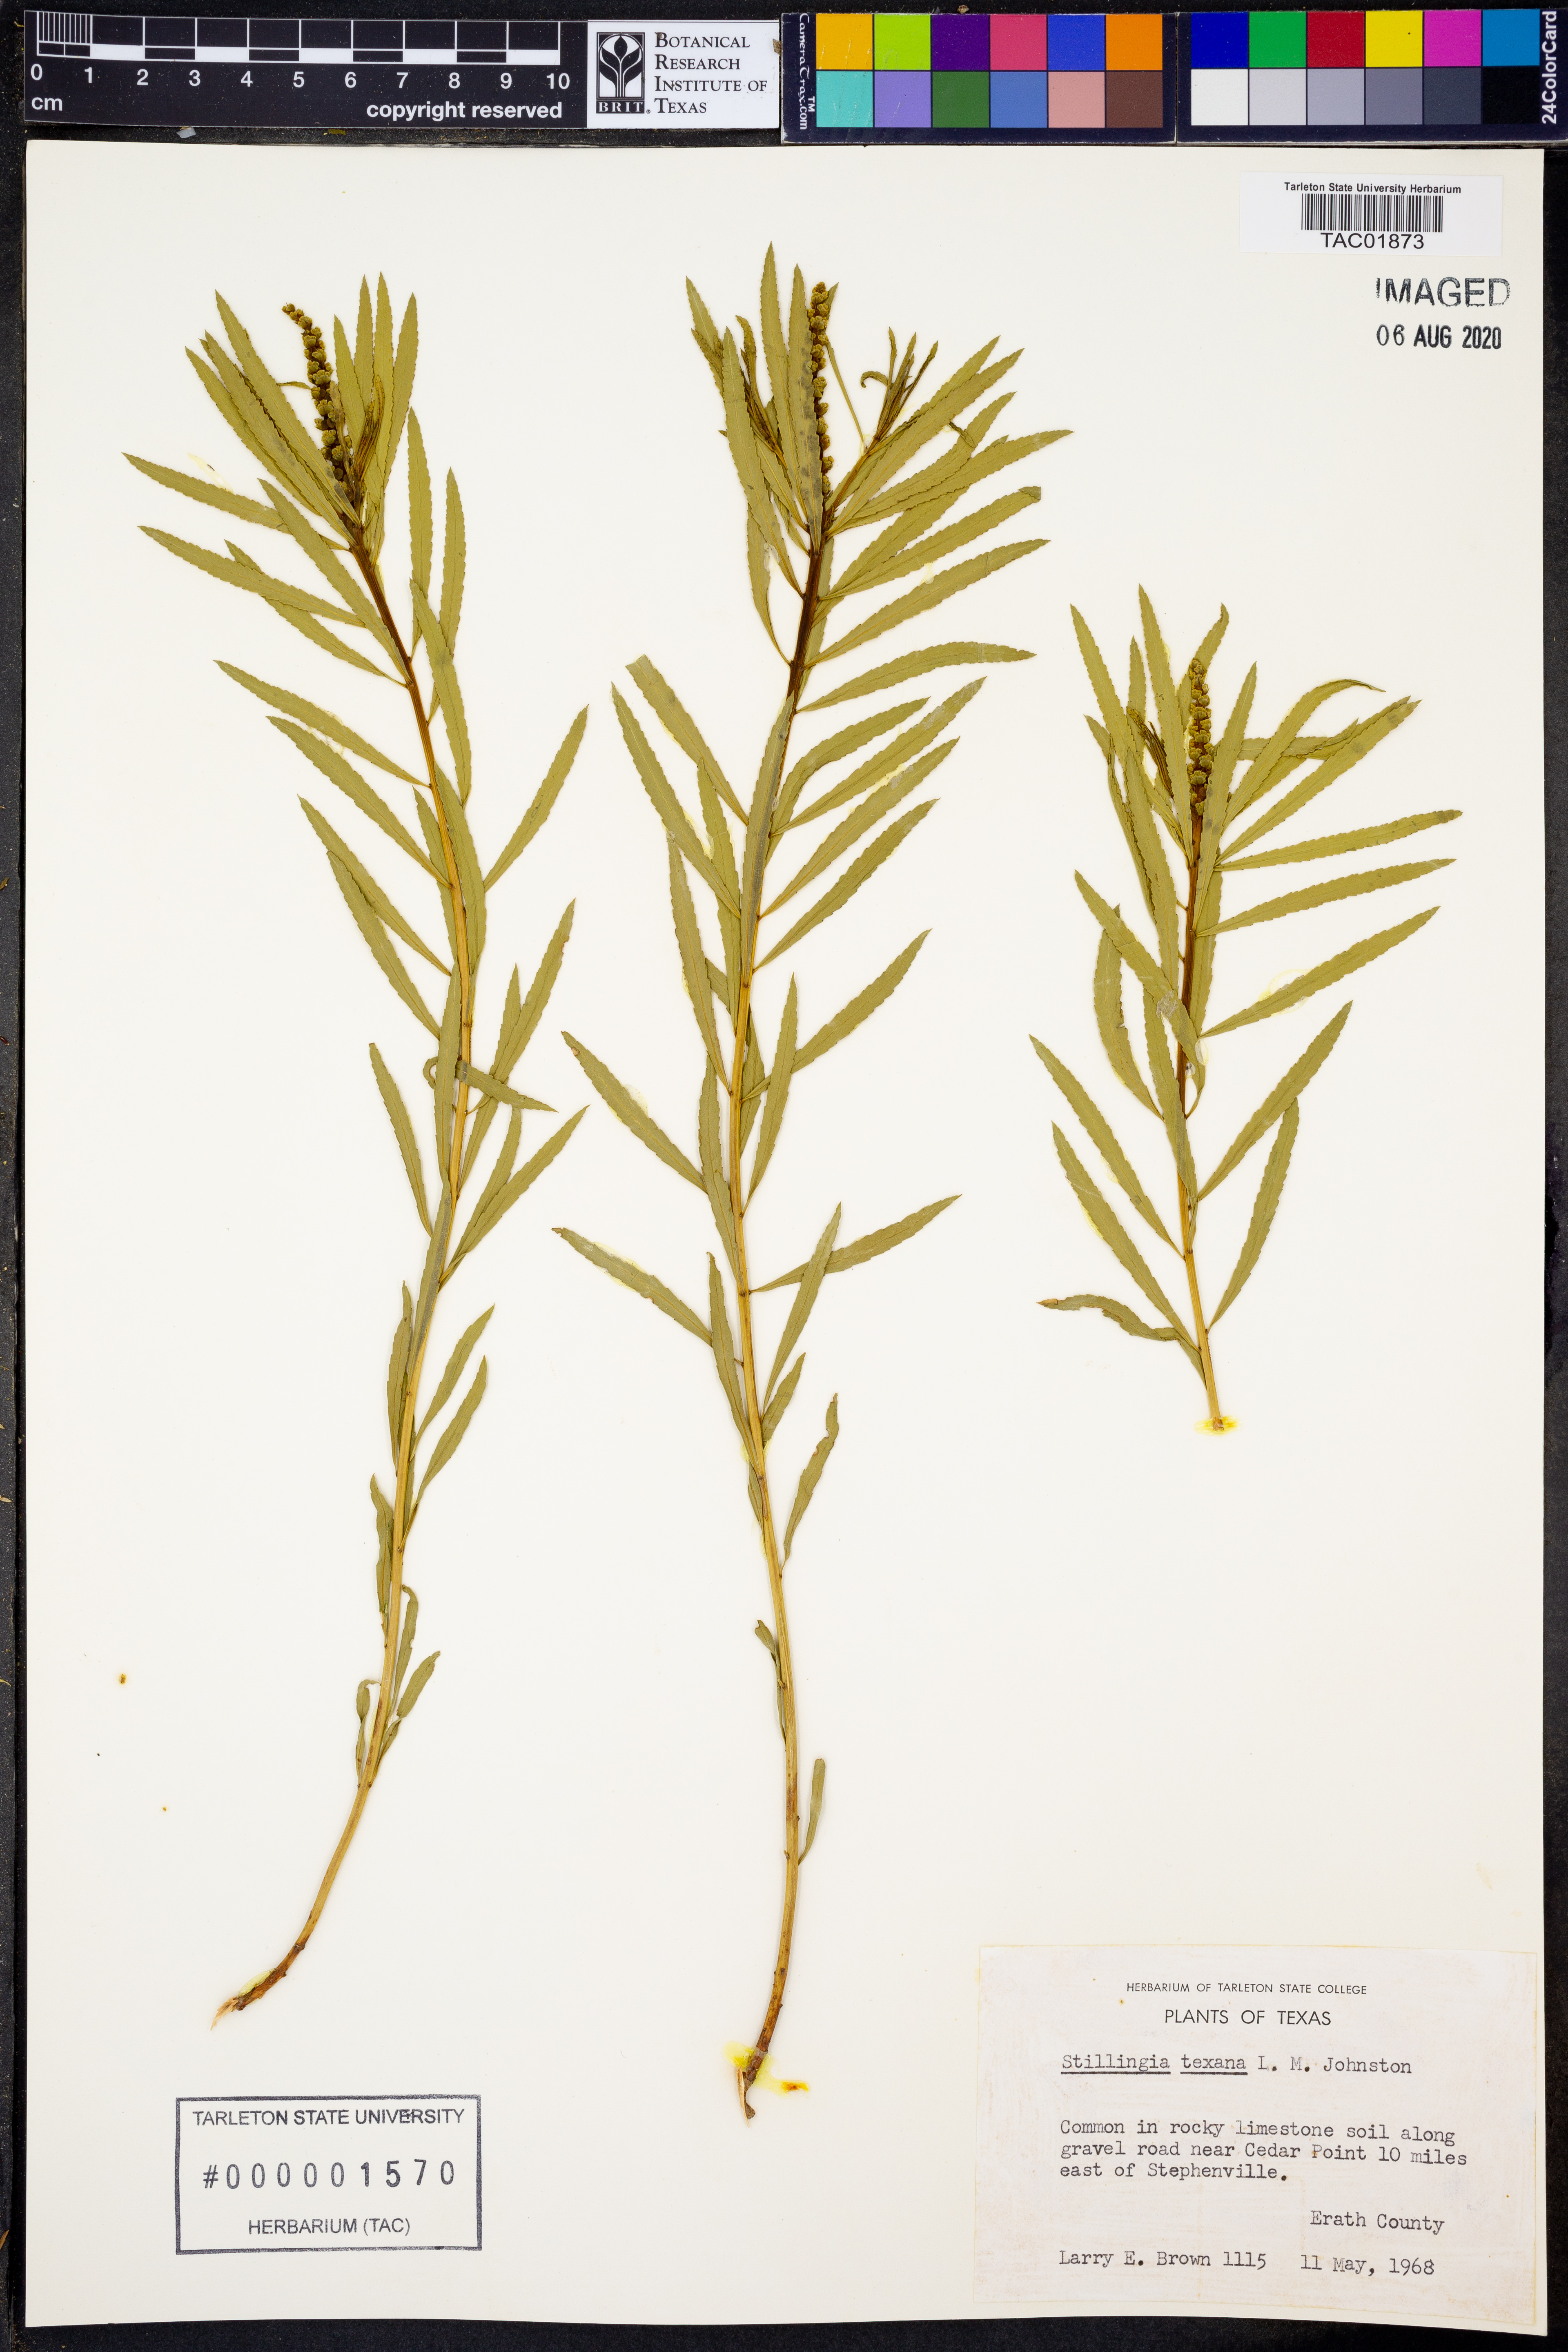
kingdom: Plantae
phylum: Tracheophyta
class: Magnoliopsida
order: Malpighiales
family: Euphorbiaceae
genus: Stillingia
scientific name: Stillingia texana
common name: Texas stillingia
